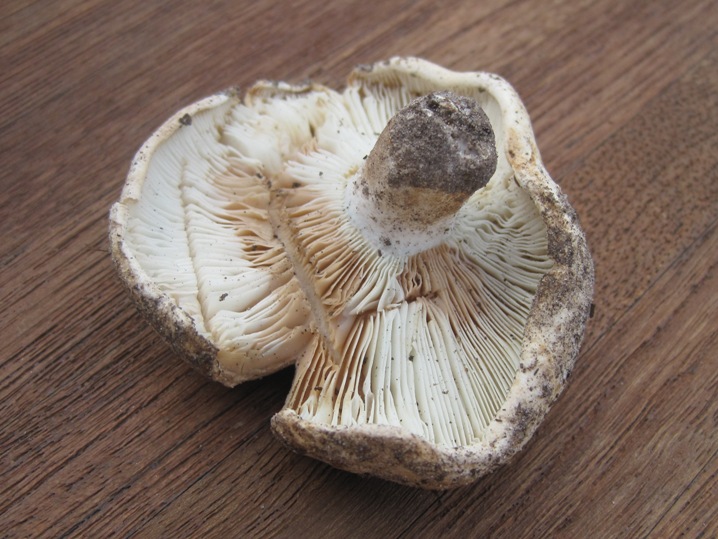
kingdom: Fungi
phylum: Basidiomycota
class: Agaricomycetes
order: Russulales
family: Russulaceae
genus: Russula
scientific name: Russula chloroides
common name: grønhalset tragt-skørhat
